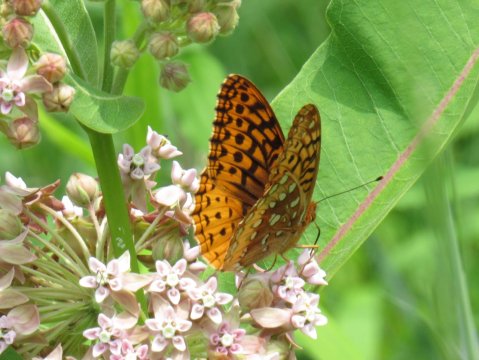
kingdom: Animalia
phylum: Arthropoda
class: Insecta
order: Lepidoptera
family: Nymphalidae
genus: Speyeria
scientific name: Speyeria cybele
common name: Great Spangled Fritillary
